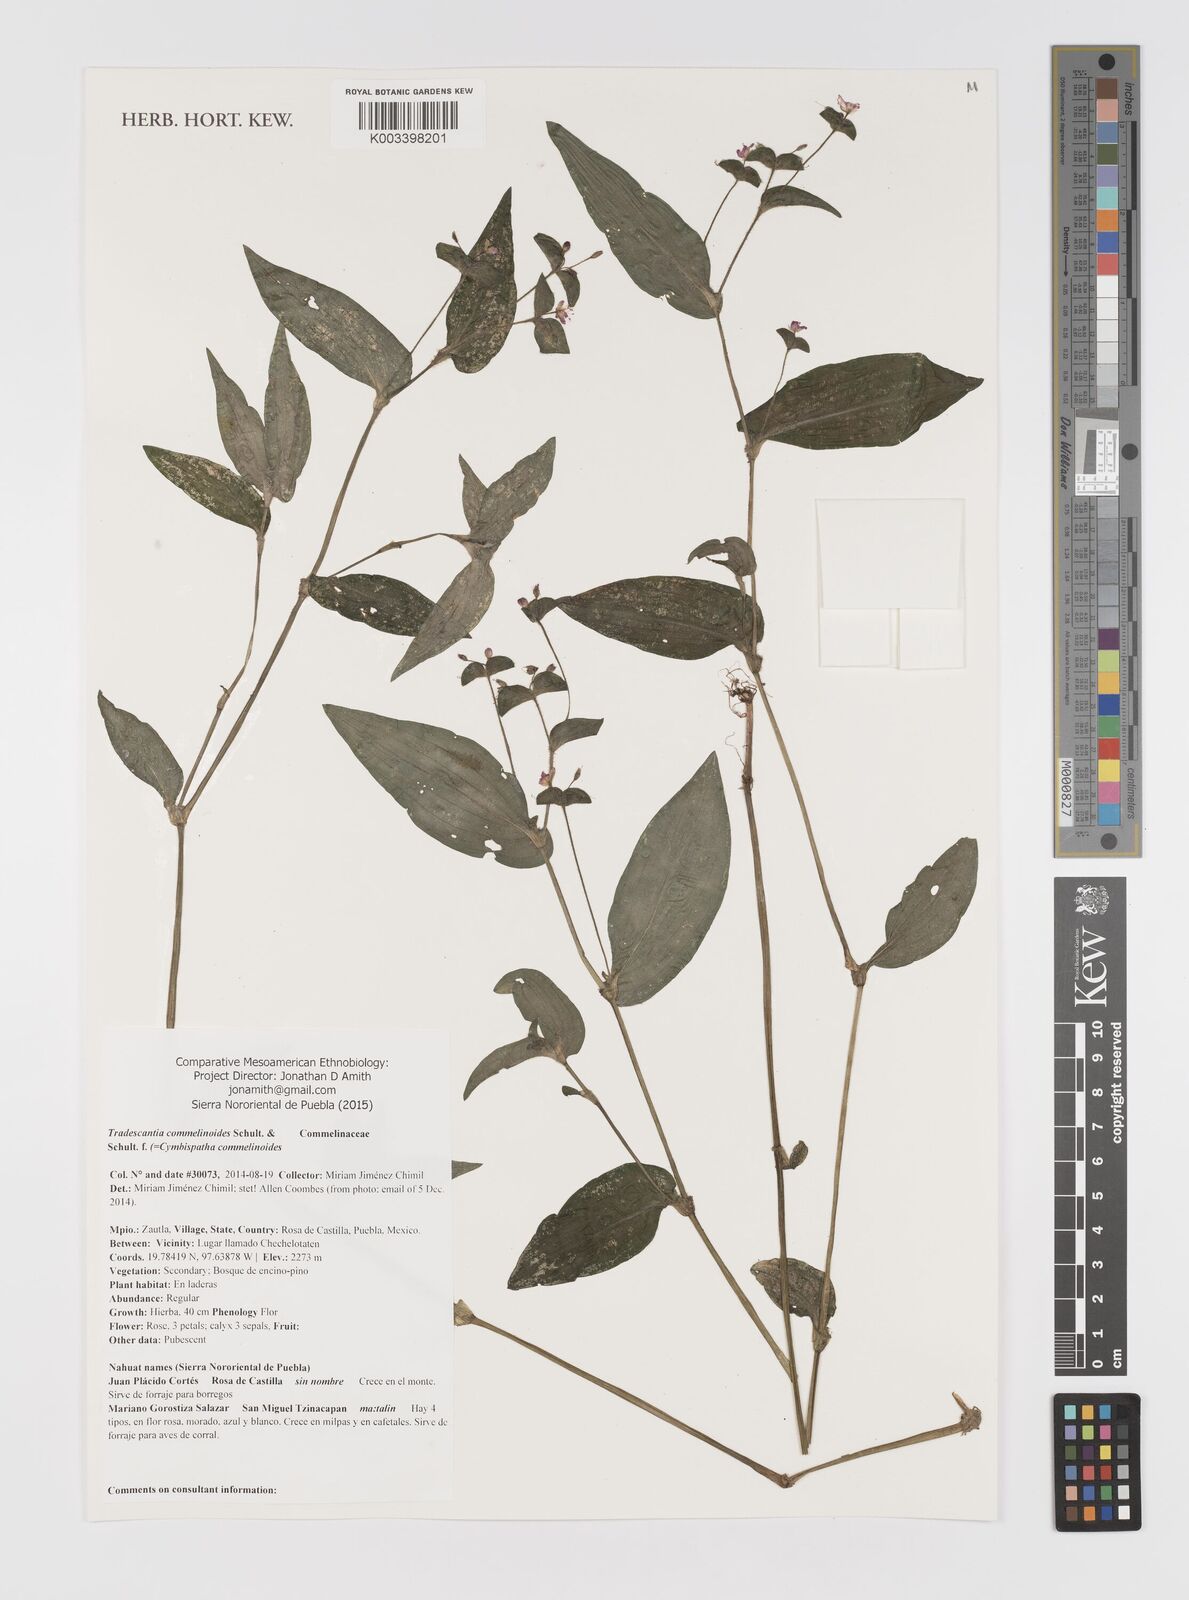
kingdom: Plantae
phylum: Tracheophyta
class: Liliopsida
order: Commelinales
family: Commelinaceae
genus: Tradescantia
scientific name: Tradescantia commelinoides
